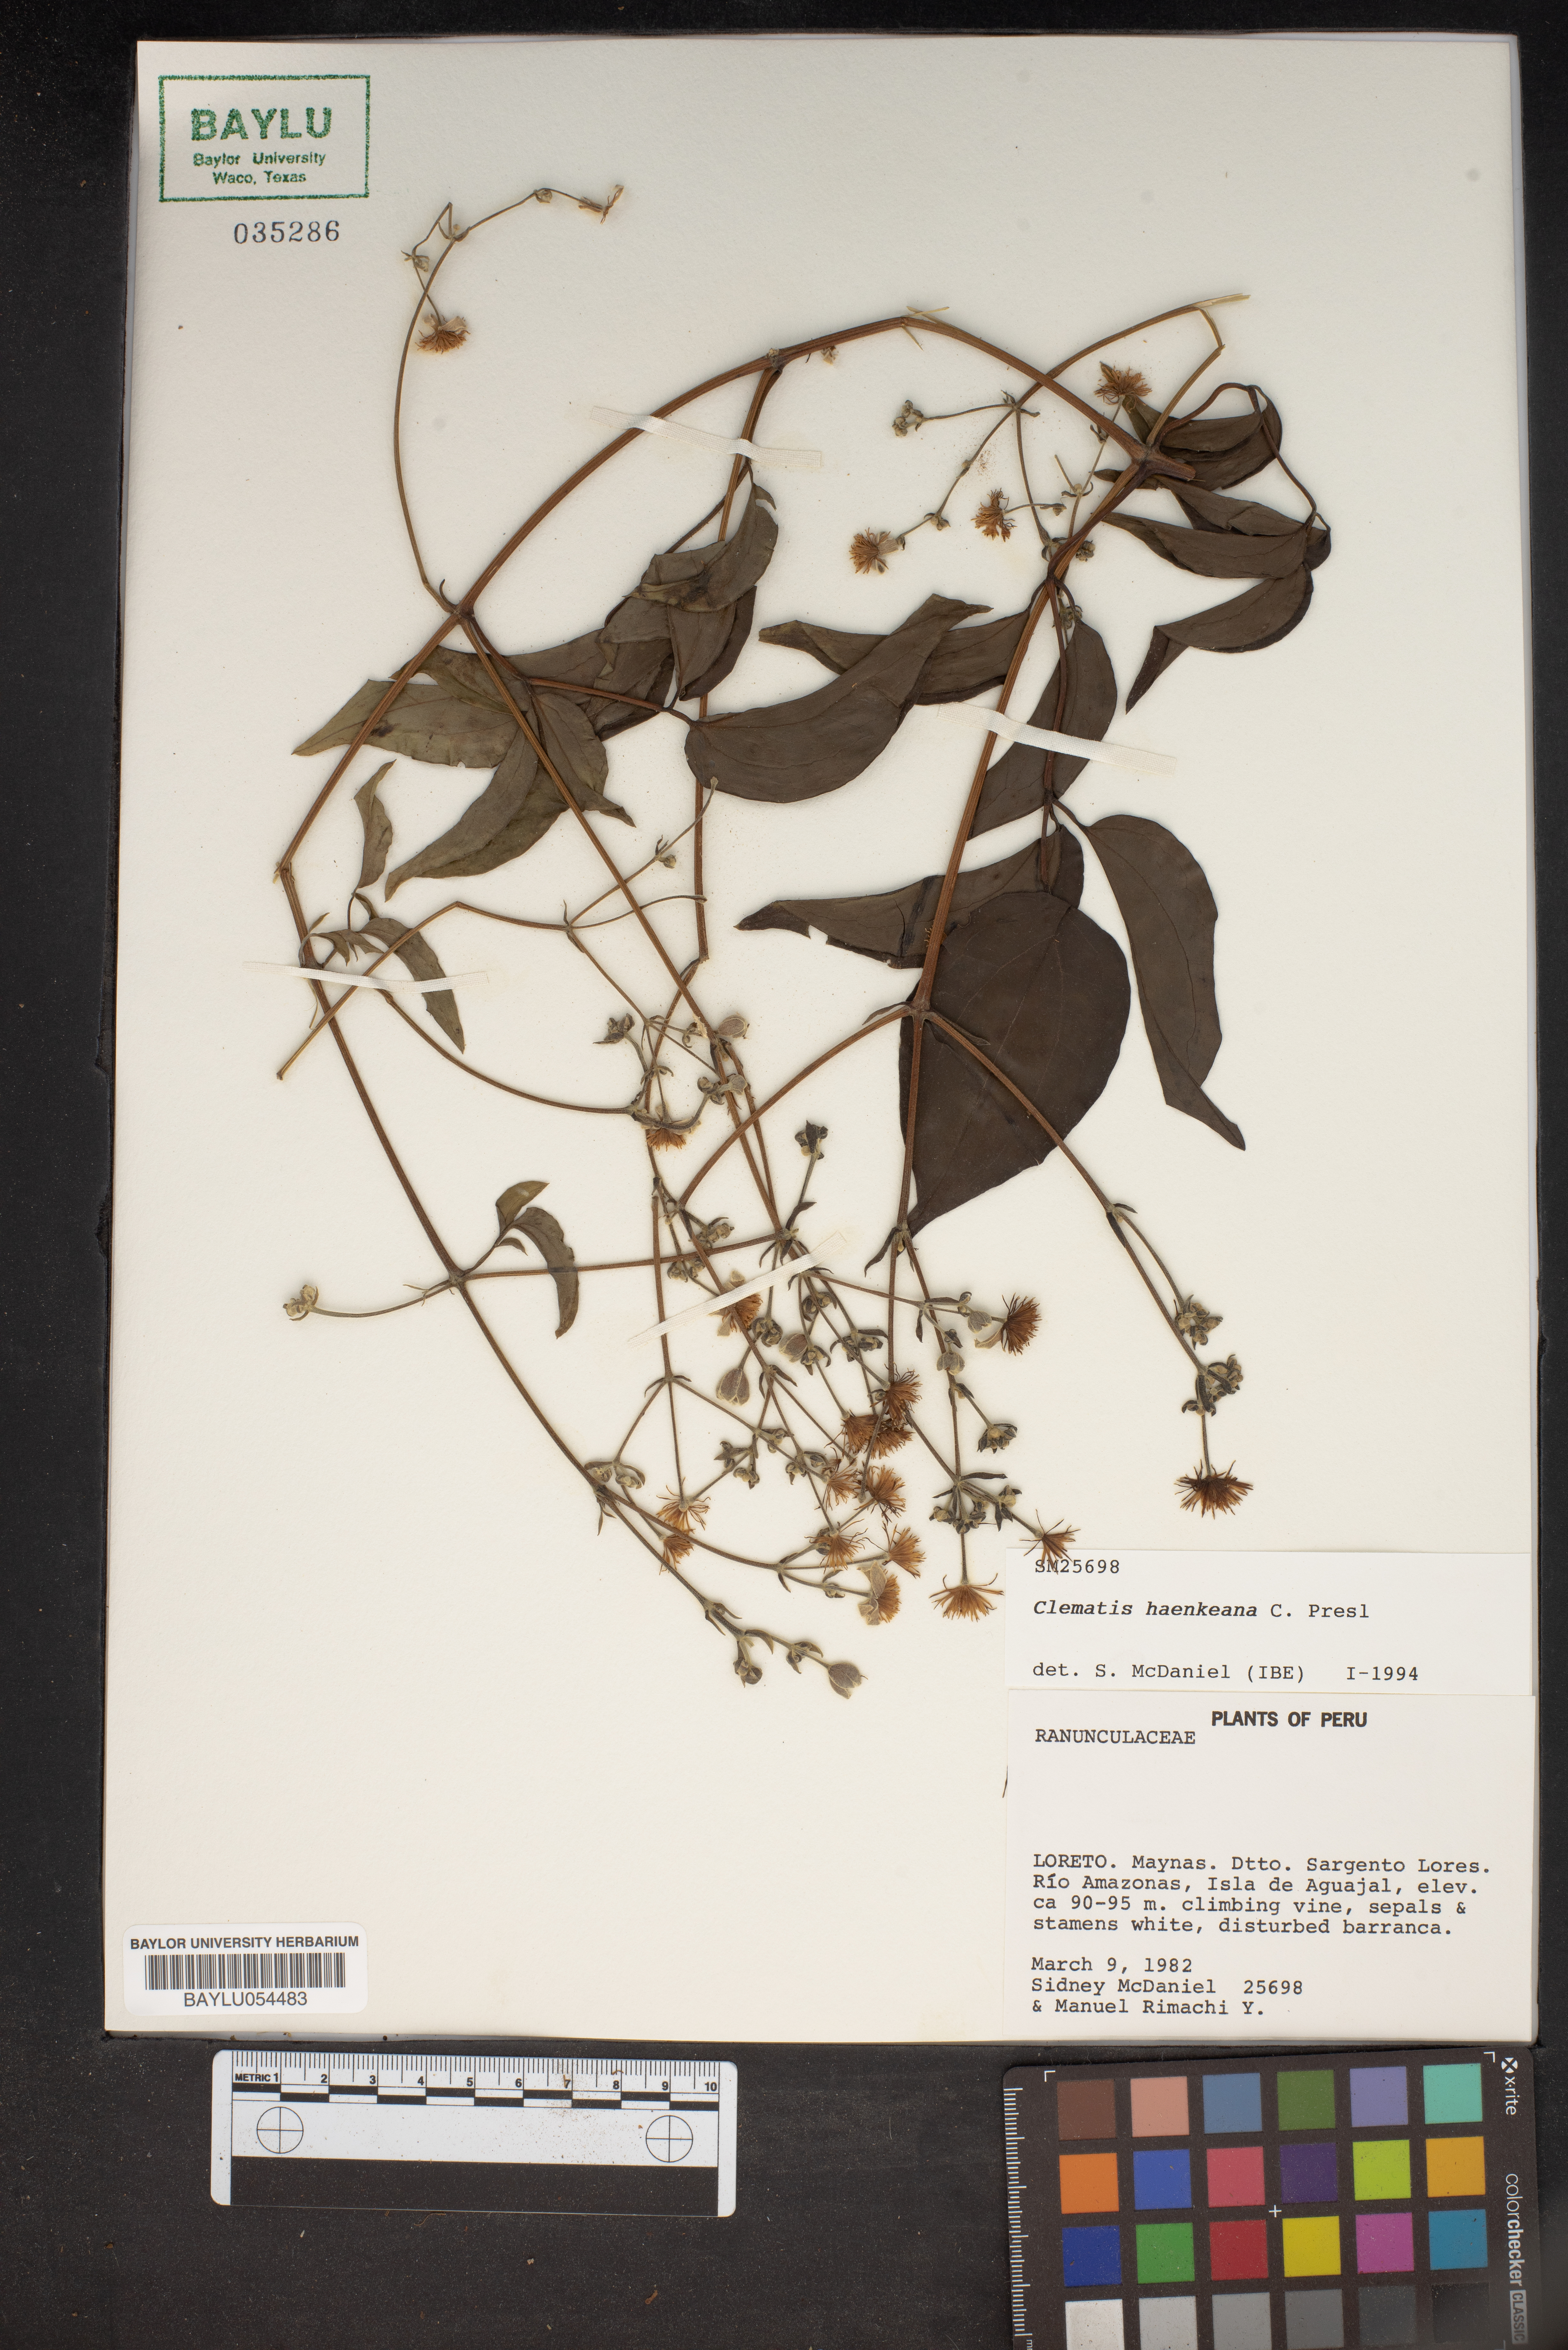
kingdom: Plantae
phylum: Tracheophyta
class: Magnoliopsida
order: Ranunculales
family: Ranunculaceae
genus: Clematis
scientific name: Clematis haenkeana
